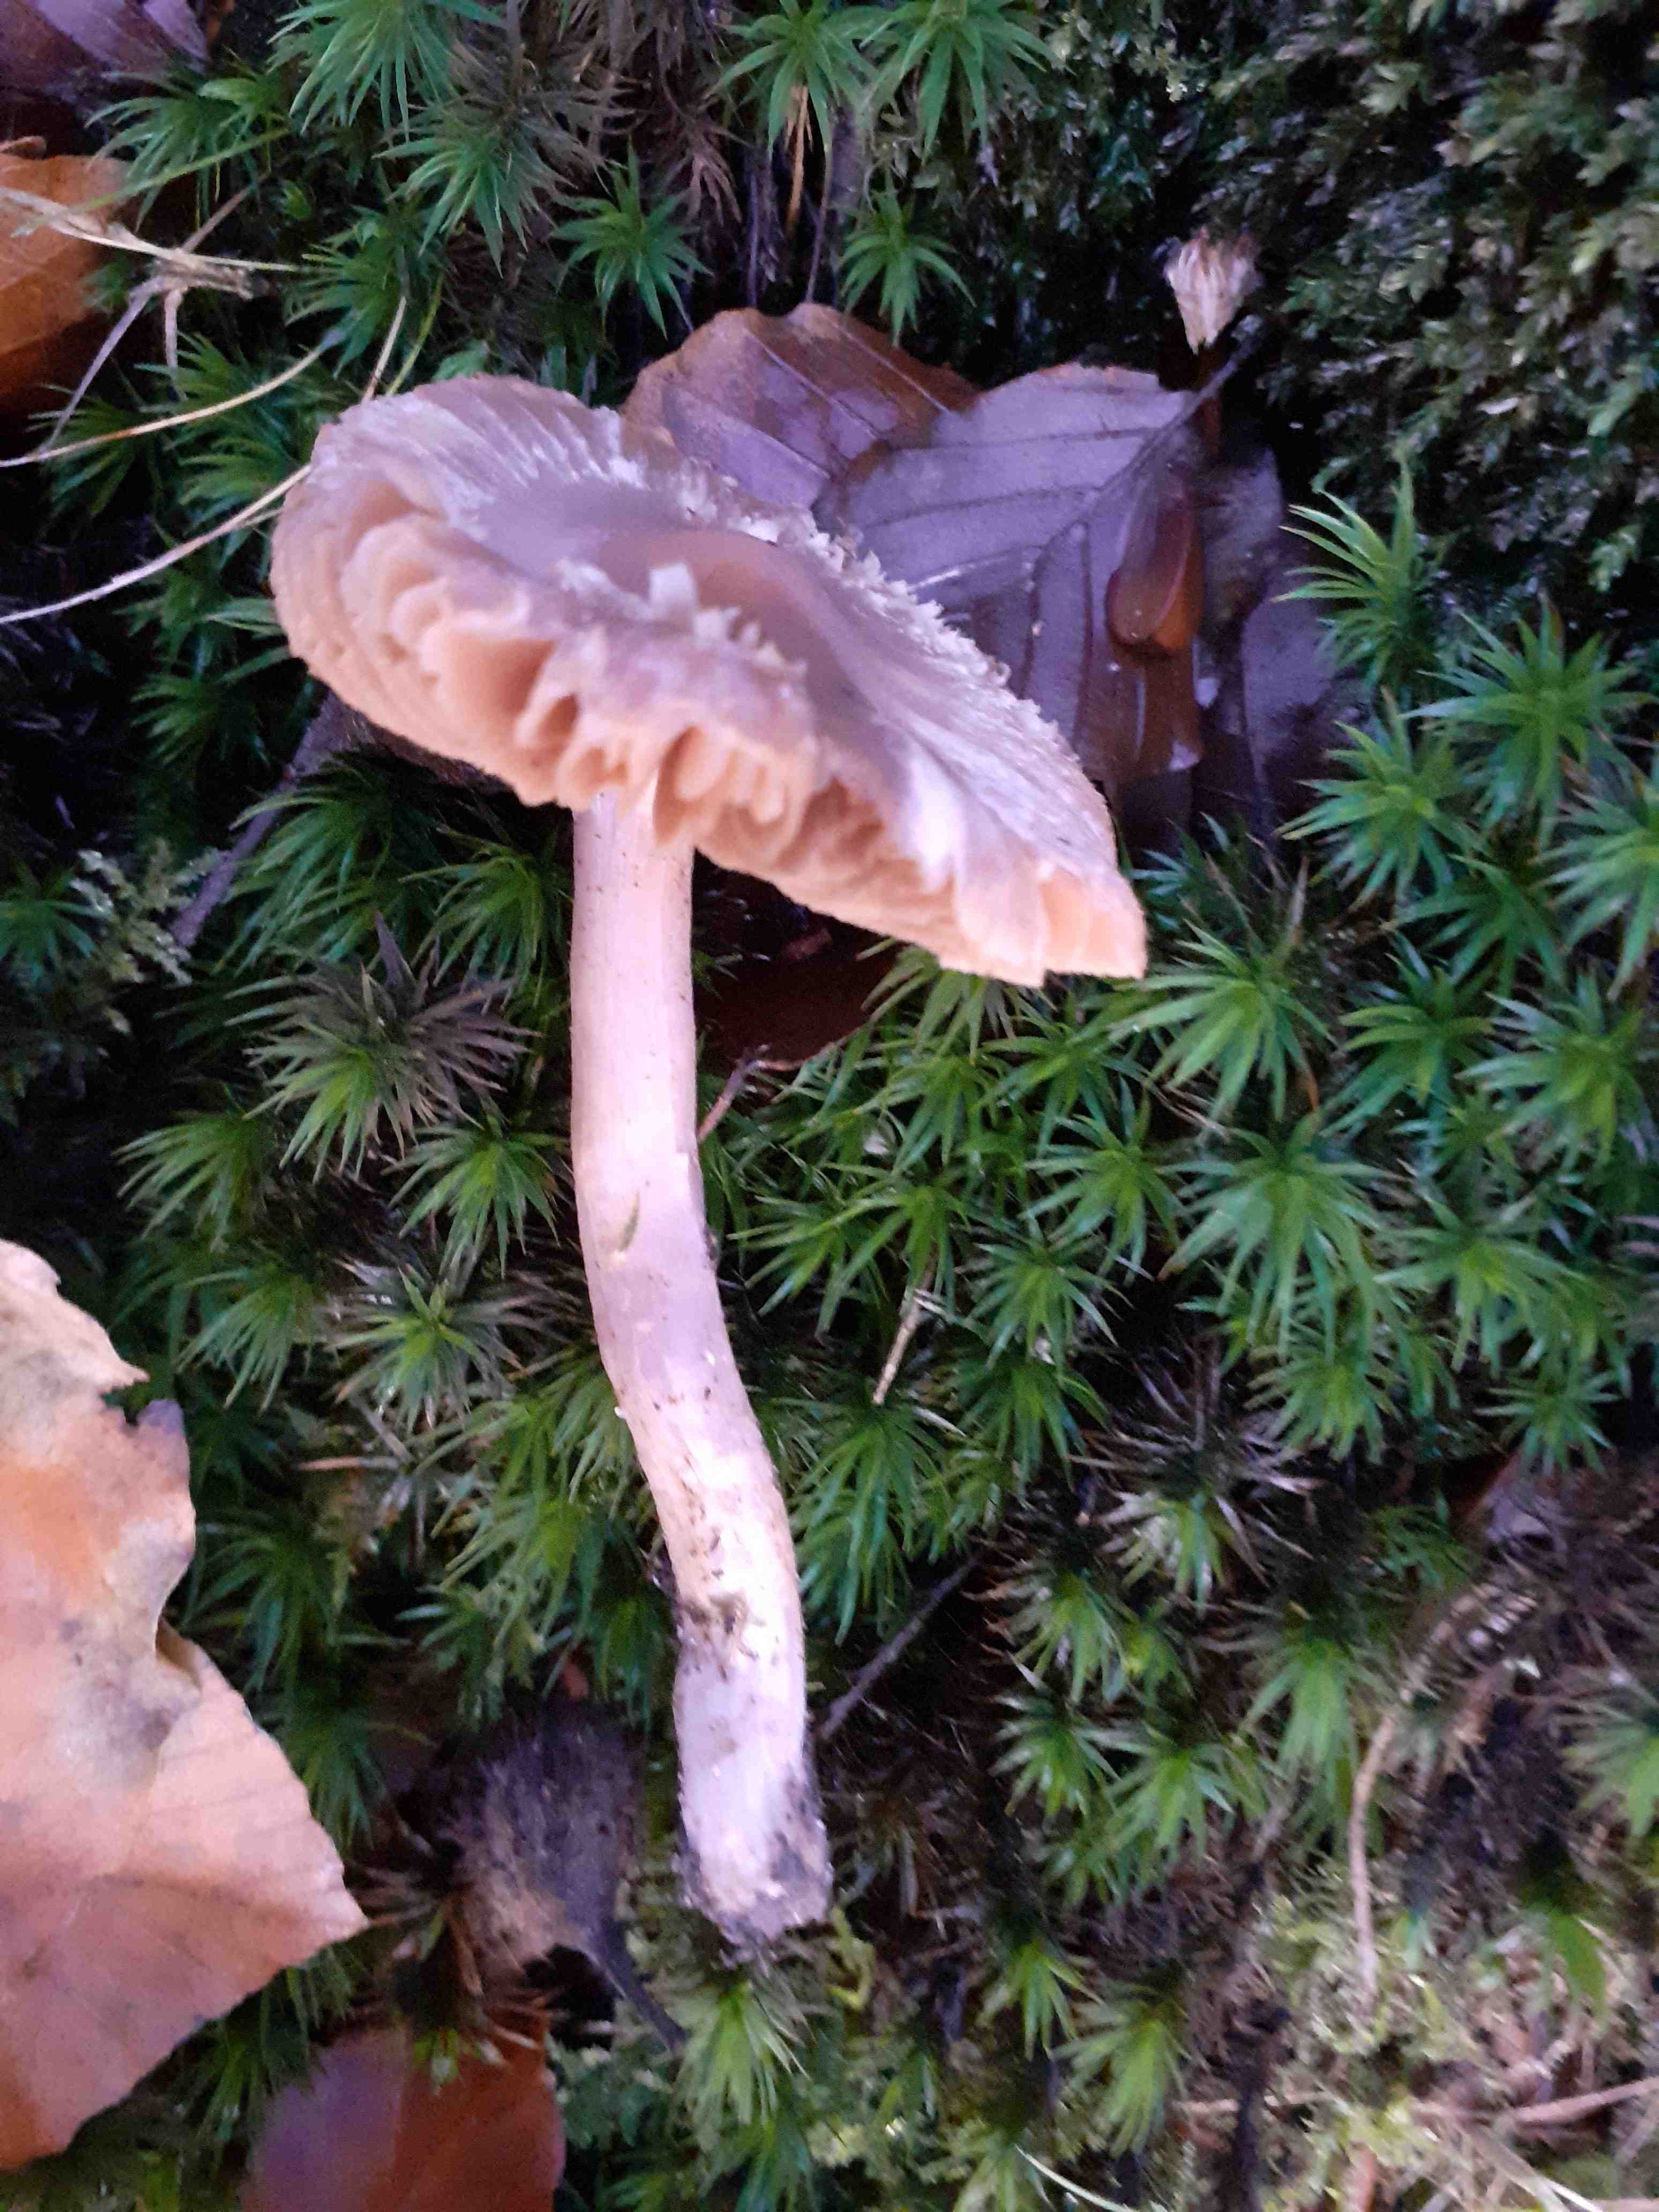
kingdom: Fungi
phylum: Basidiomycota
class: Agaricomycetes
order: Agaricales
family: Cortinariaceae
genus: Cortinarius
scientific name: Cortinarius
